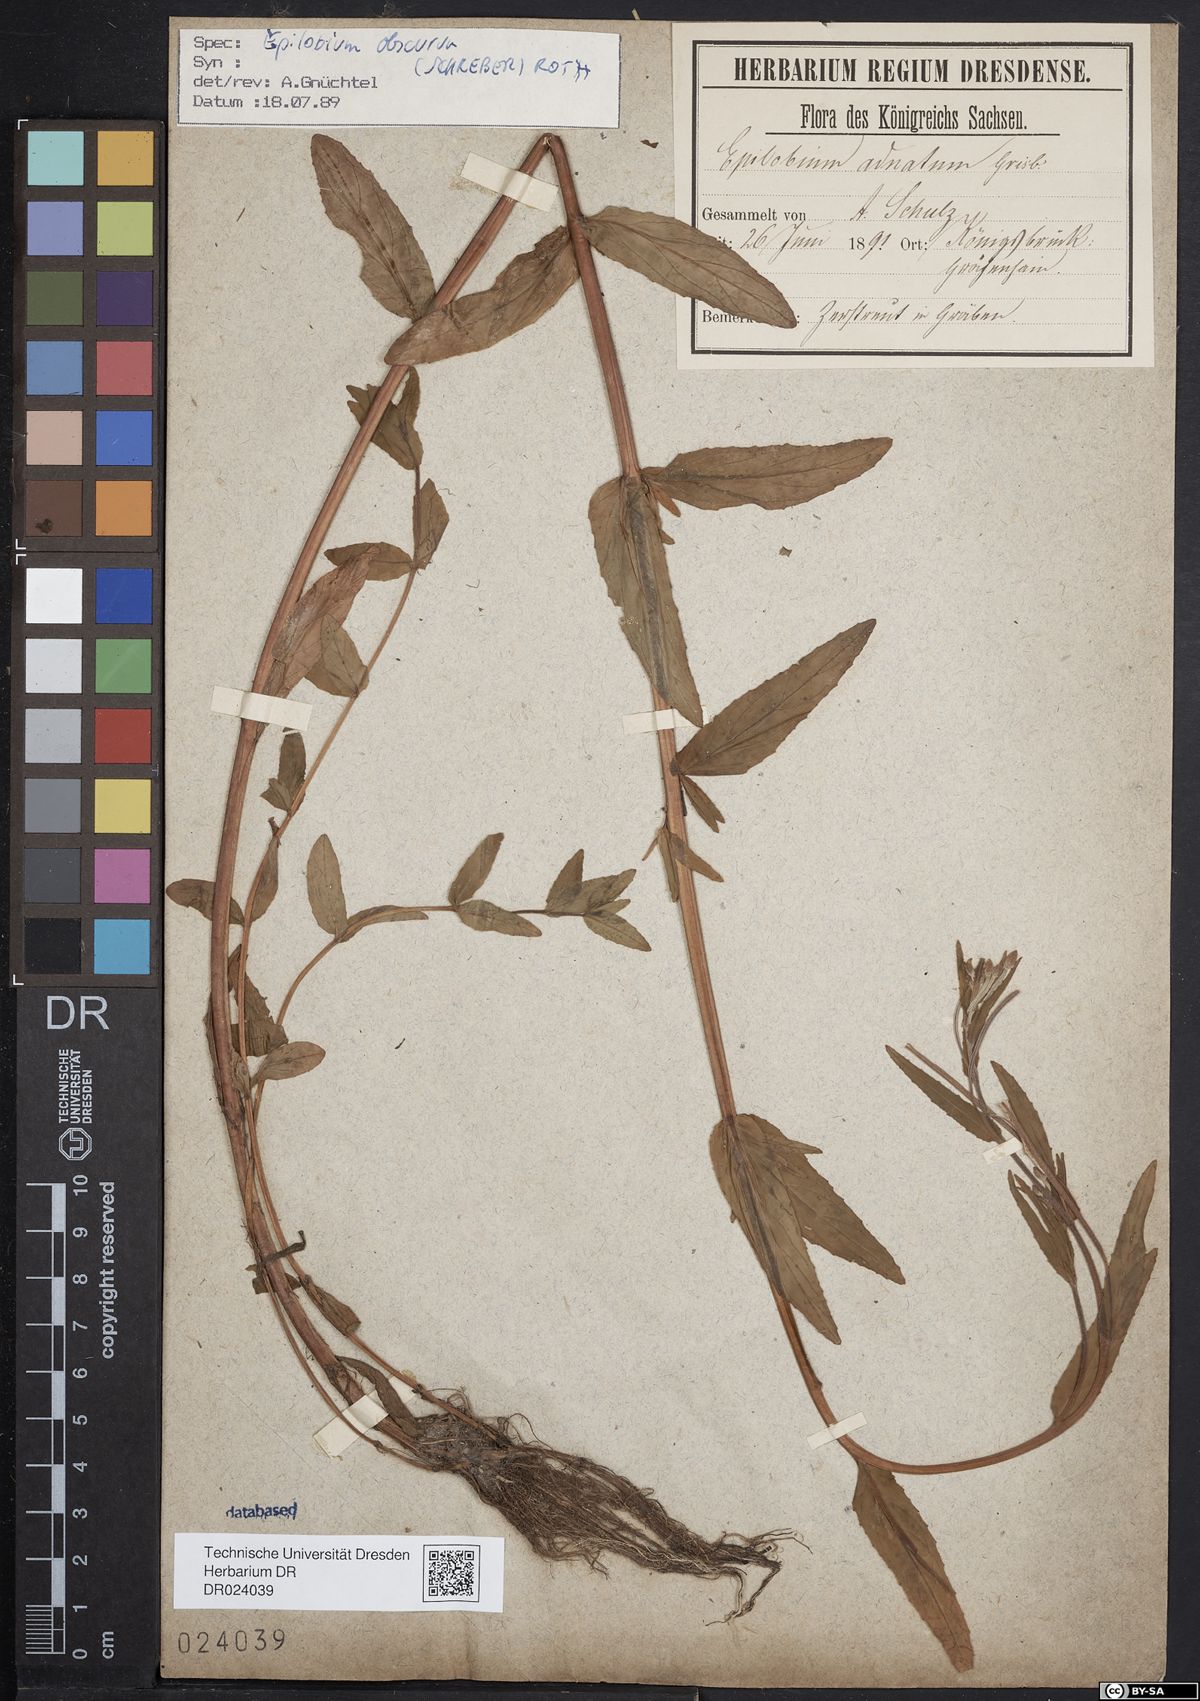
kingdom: Plantae
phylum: Tracheophyta
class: Magnoliopsida
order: Myrtales
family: Onagraceae
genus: Epilobium
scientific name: Epilobium obscurum
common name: Short-fruited willowherb
